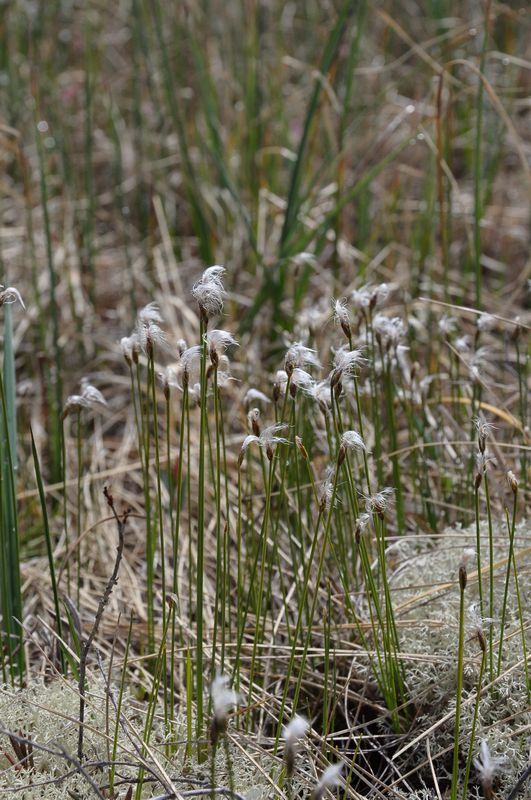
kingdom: Plantae
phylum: Tracheophyta
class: Liliopsida
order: Poales
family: Cyperaceae
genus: Trichophorum
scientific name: Trichophorum alpinum
